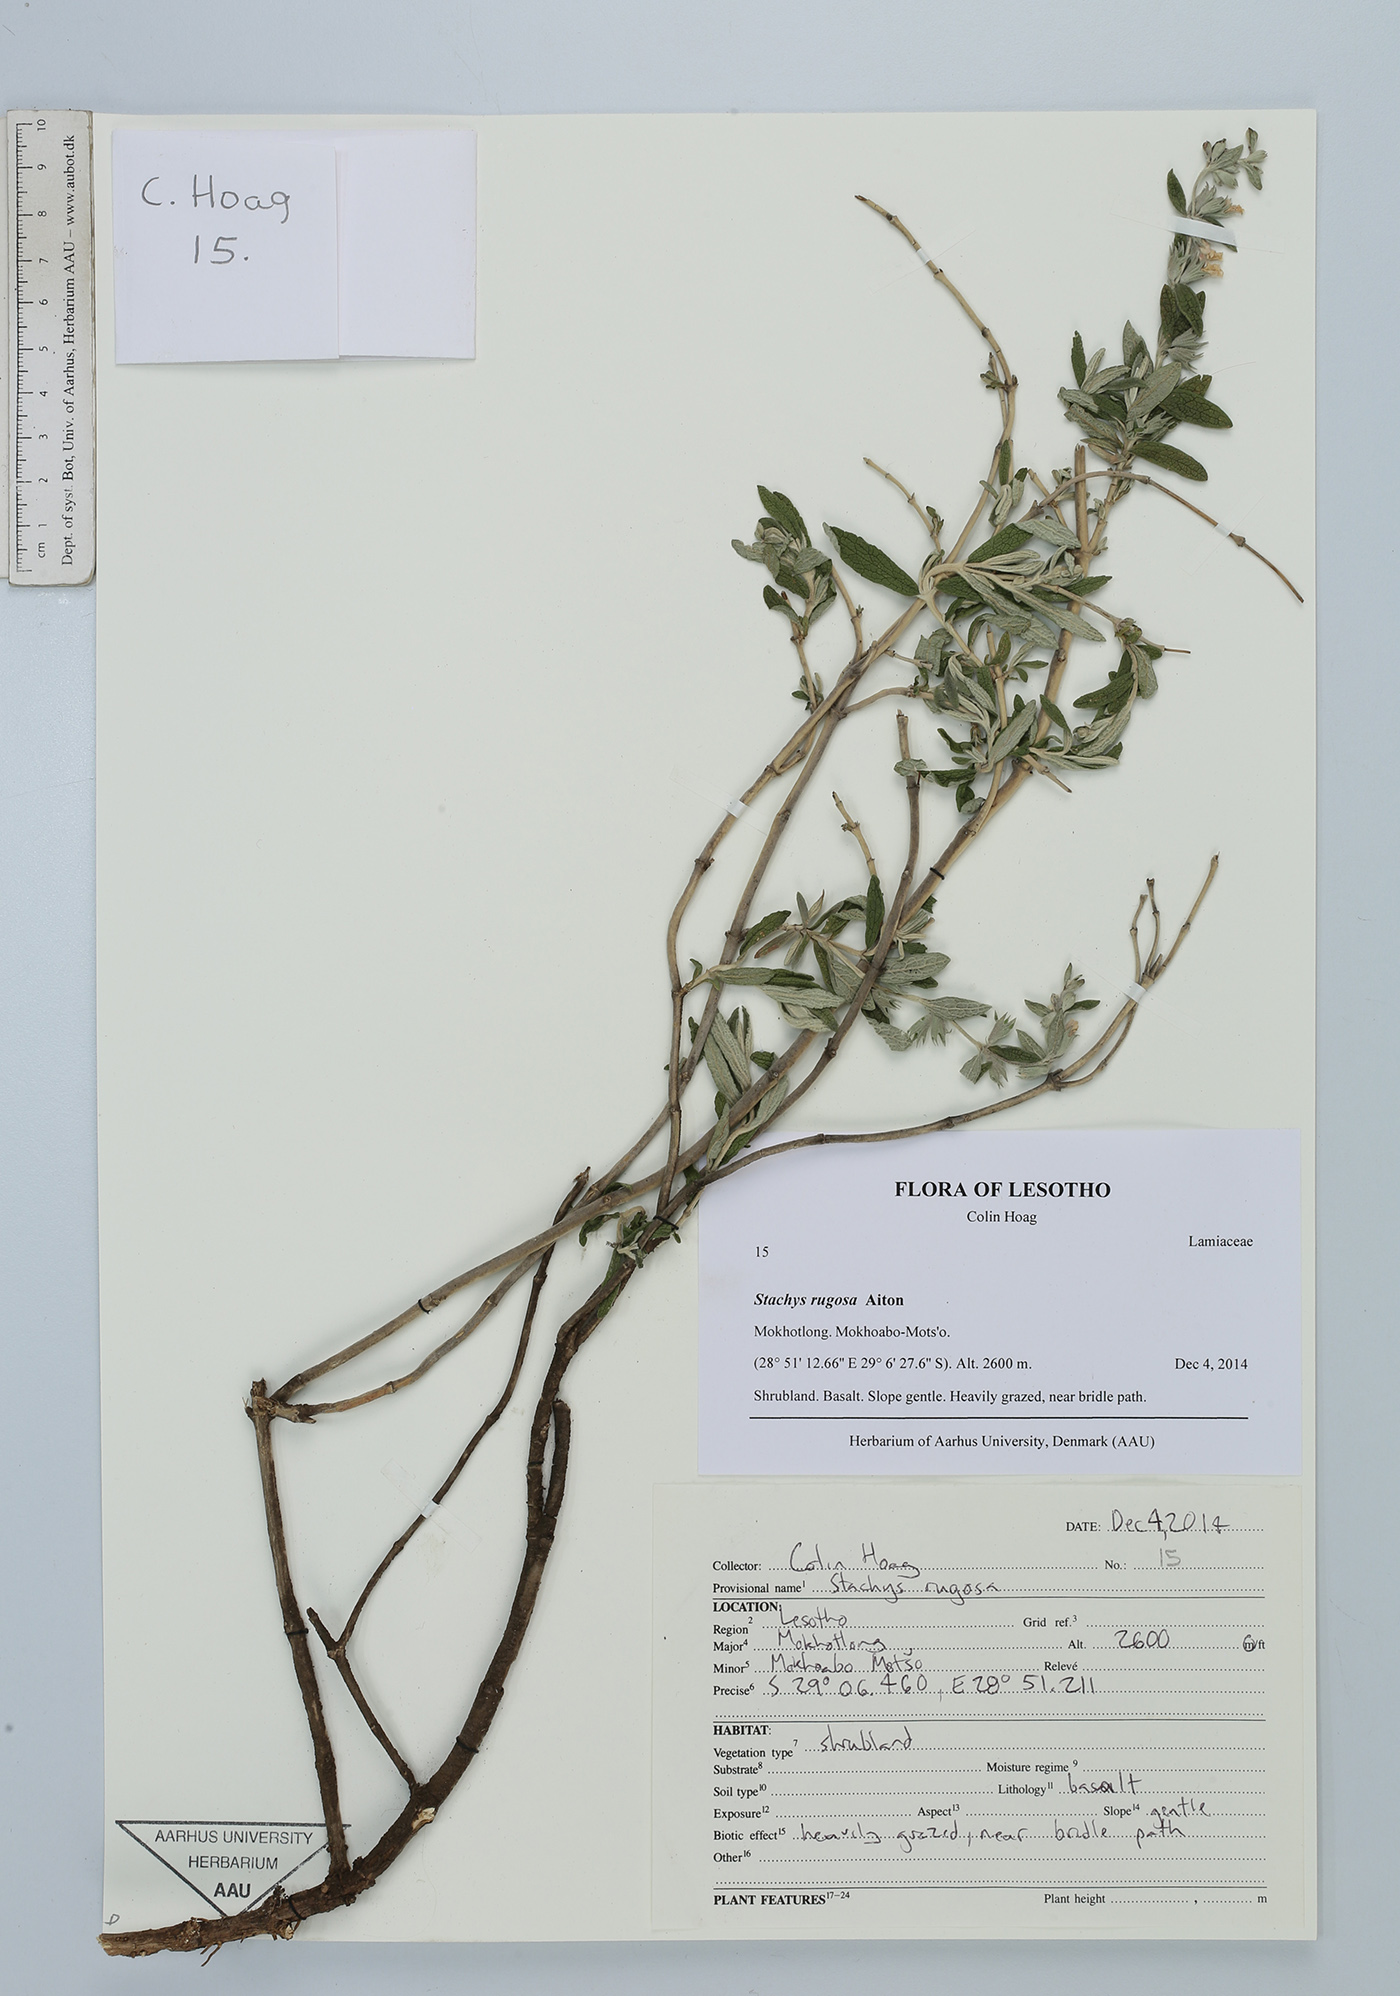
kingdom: Plantae
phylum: Tracheophyta
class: Magnoliopsida
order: Lamiales
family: Lamiaceae
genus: Stachys
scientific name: Stachys rugosa
